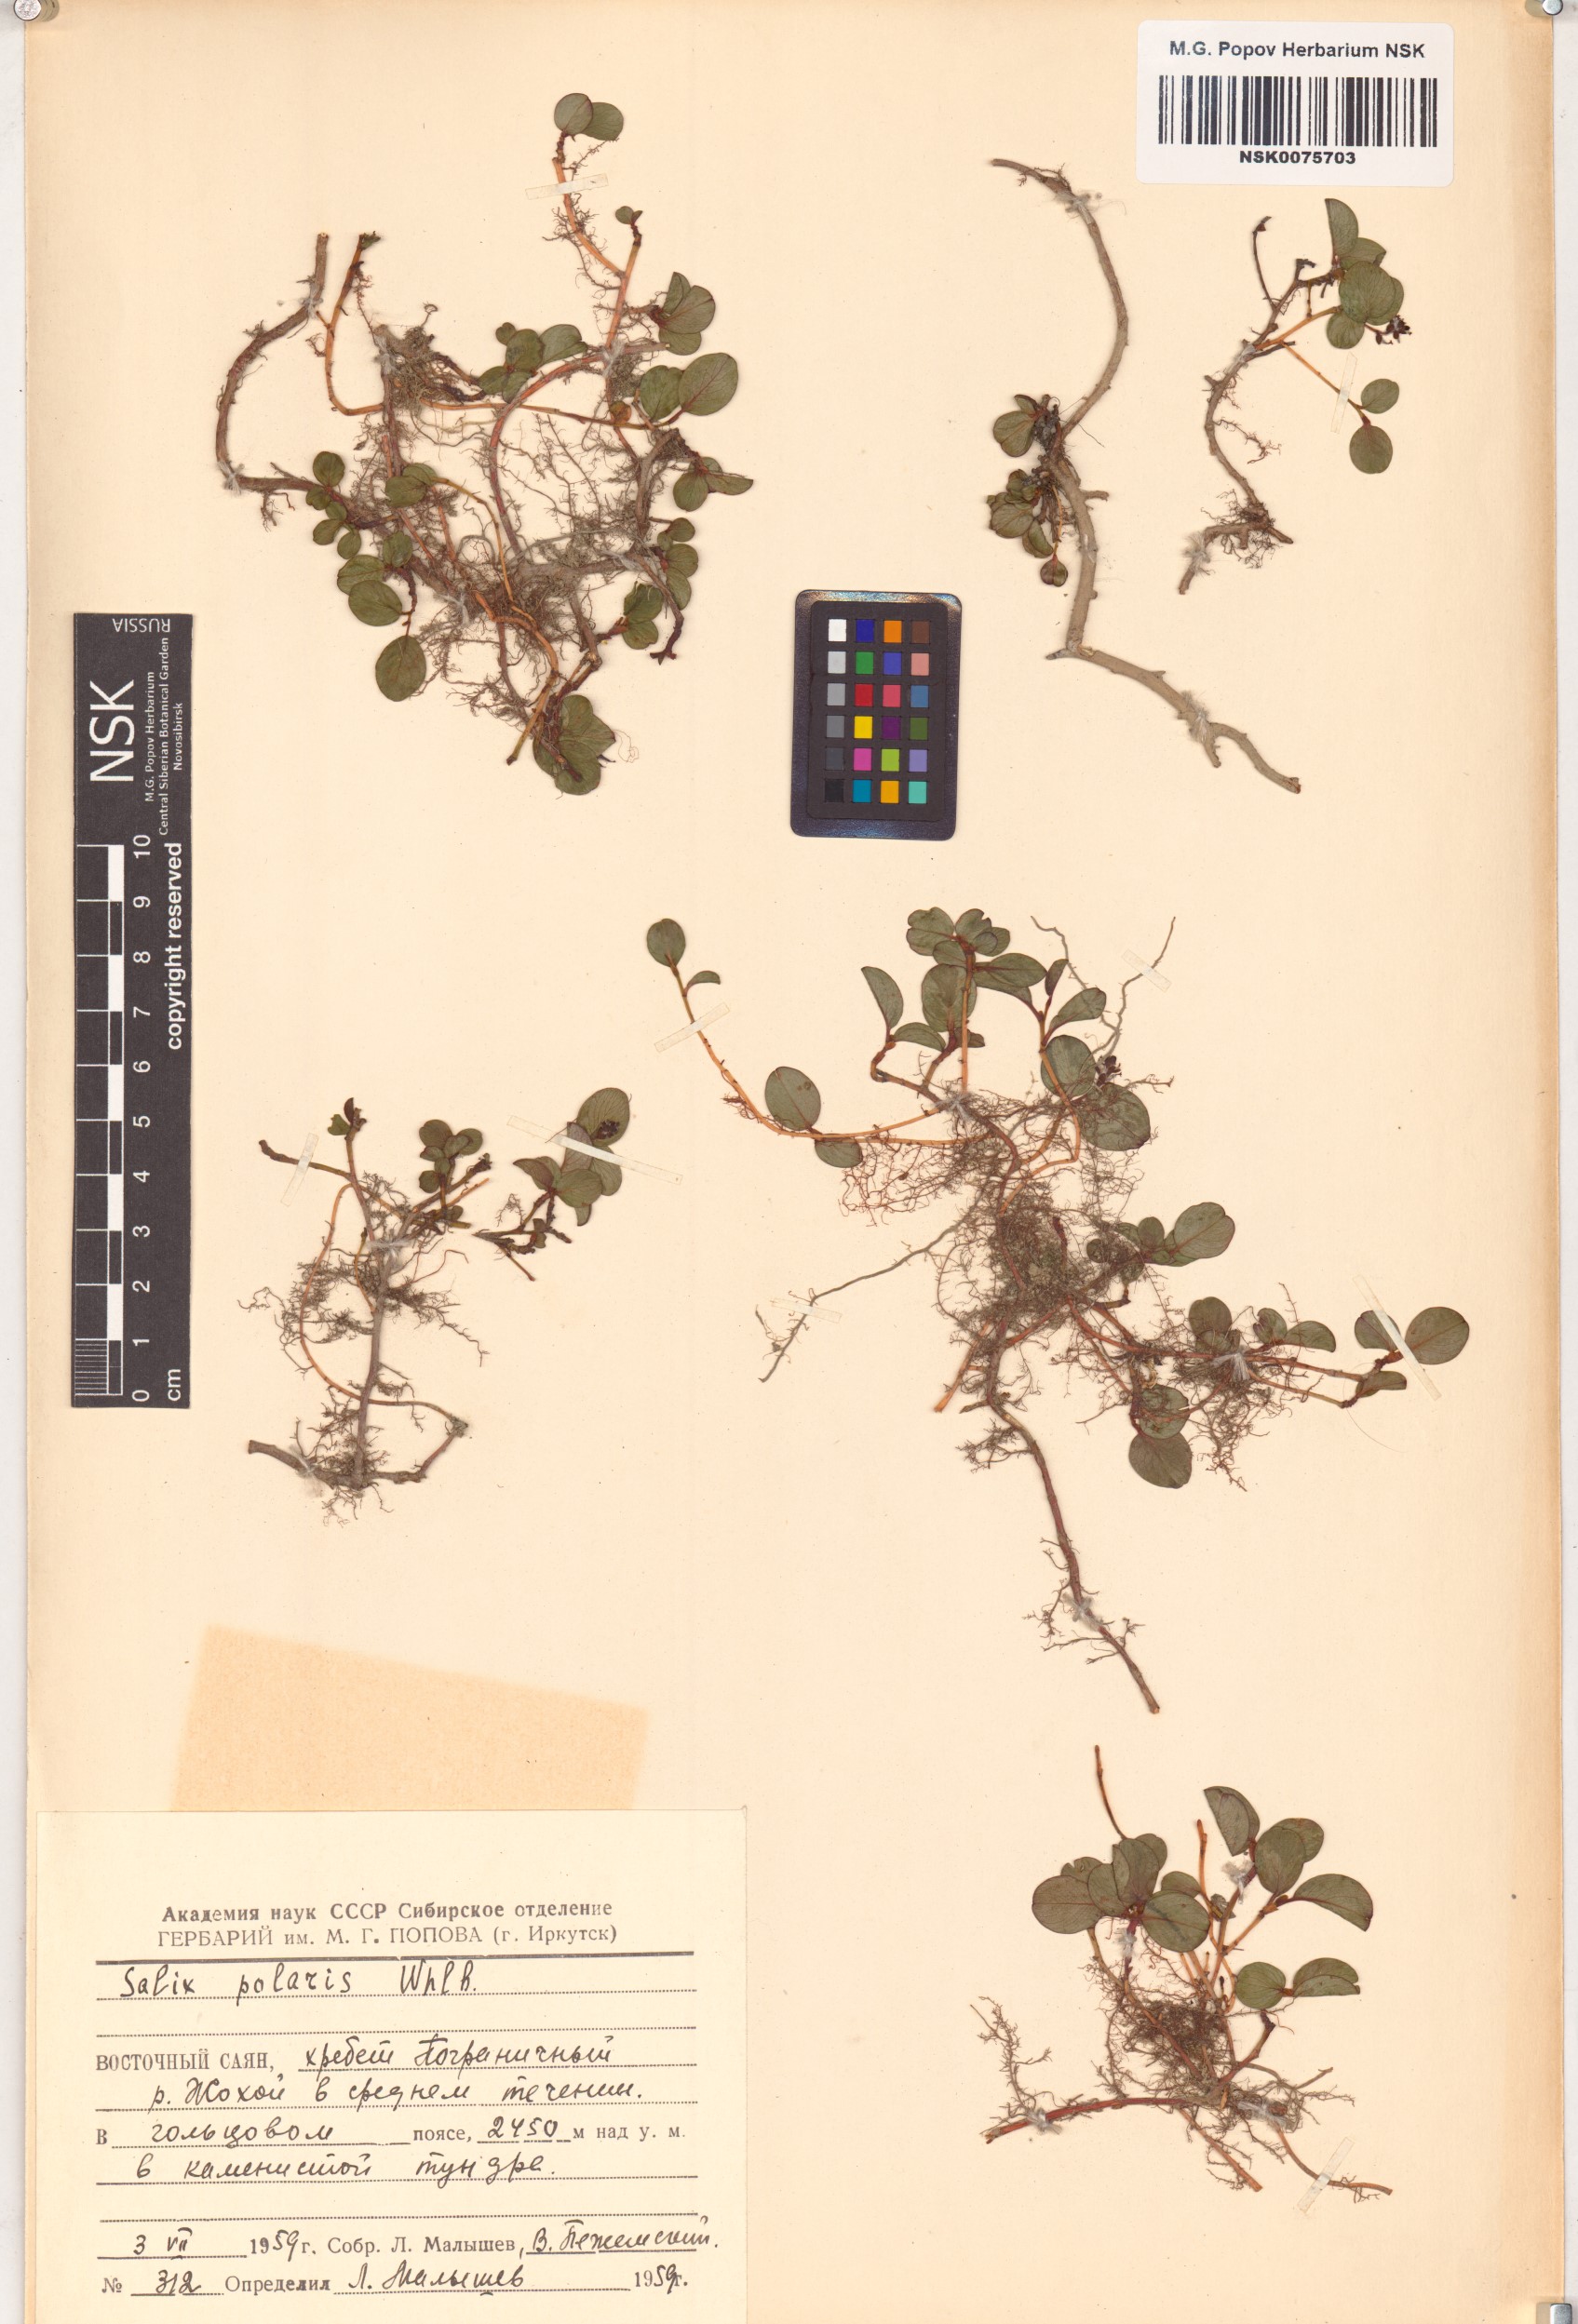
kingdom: Plantae
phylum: Tracheophyta
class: Magnoliopsida
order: Malpighiales
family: Salicaceae
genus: Salix
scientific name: Salix polaris
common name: Polar willow
